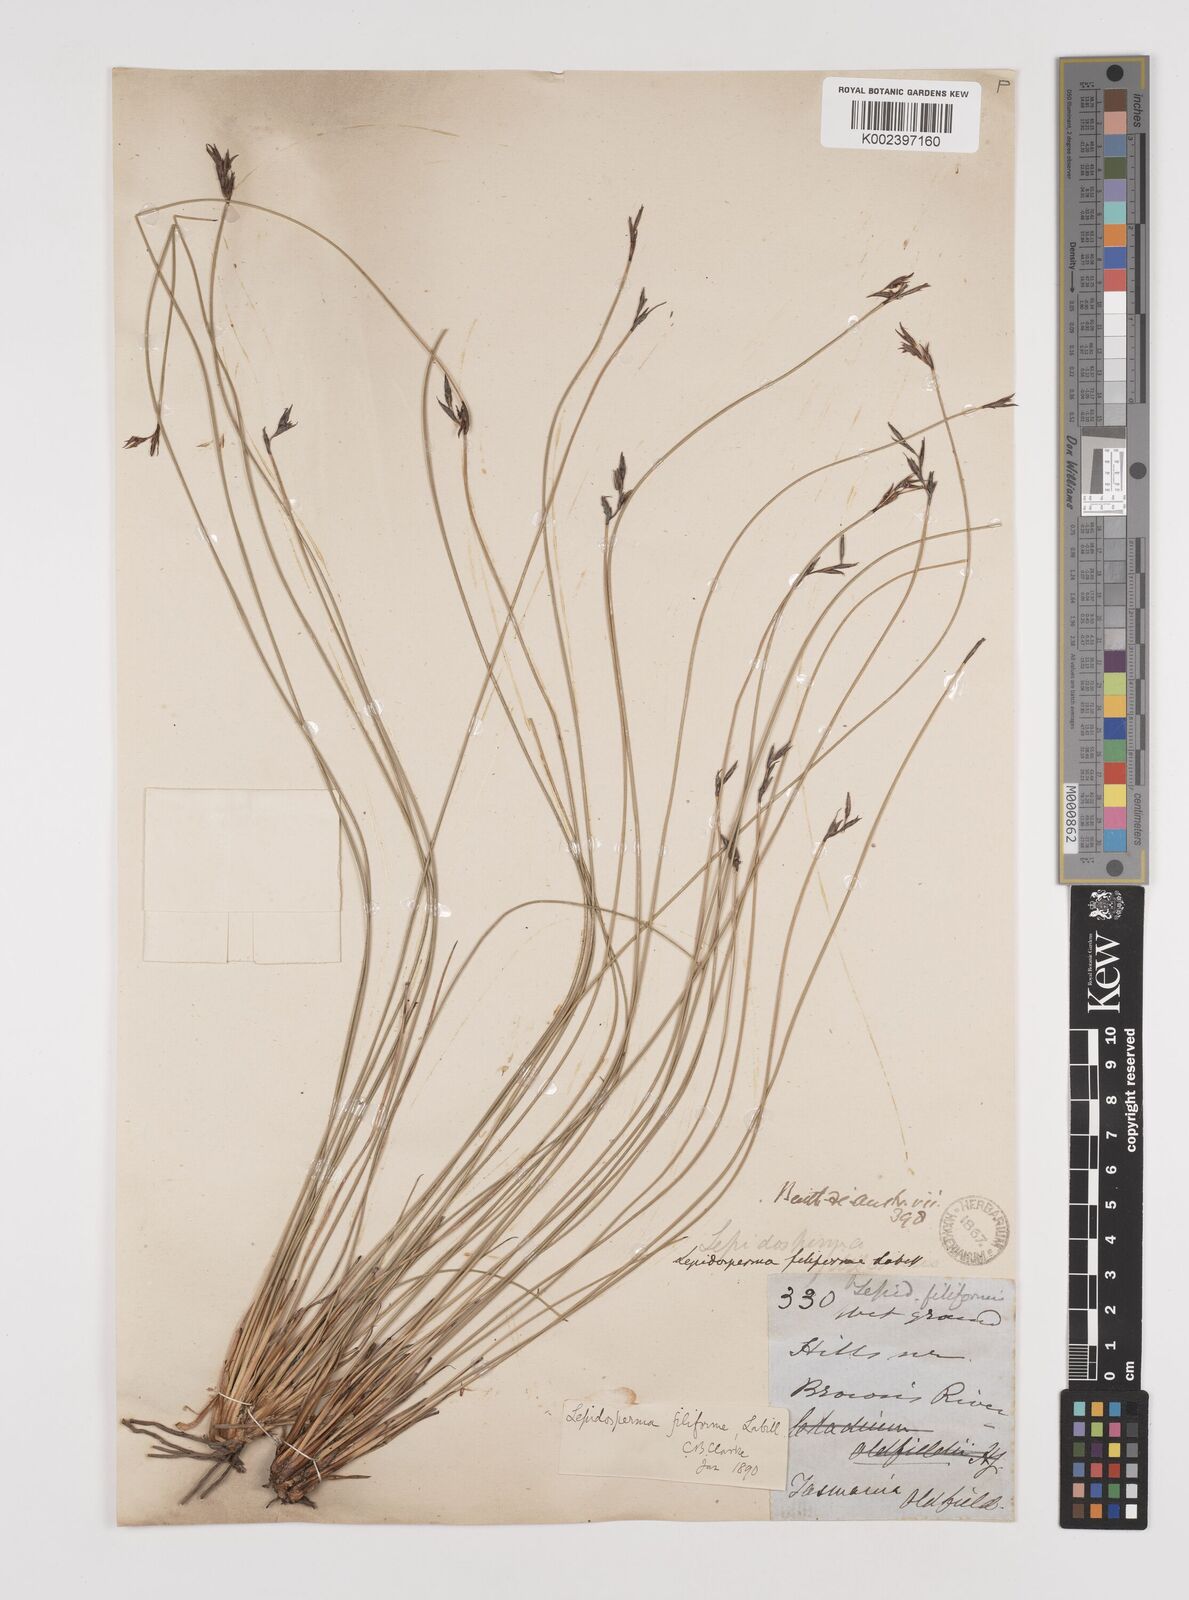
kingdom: Plantae
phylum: Tracheophyta
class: Liliopsida
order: Poales
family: Cyperaceae
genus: Lepidosperma
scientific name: Lepidosperma filiforme
